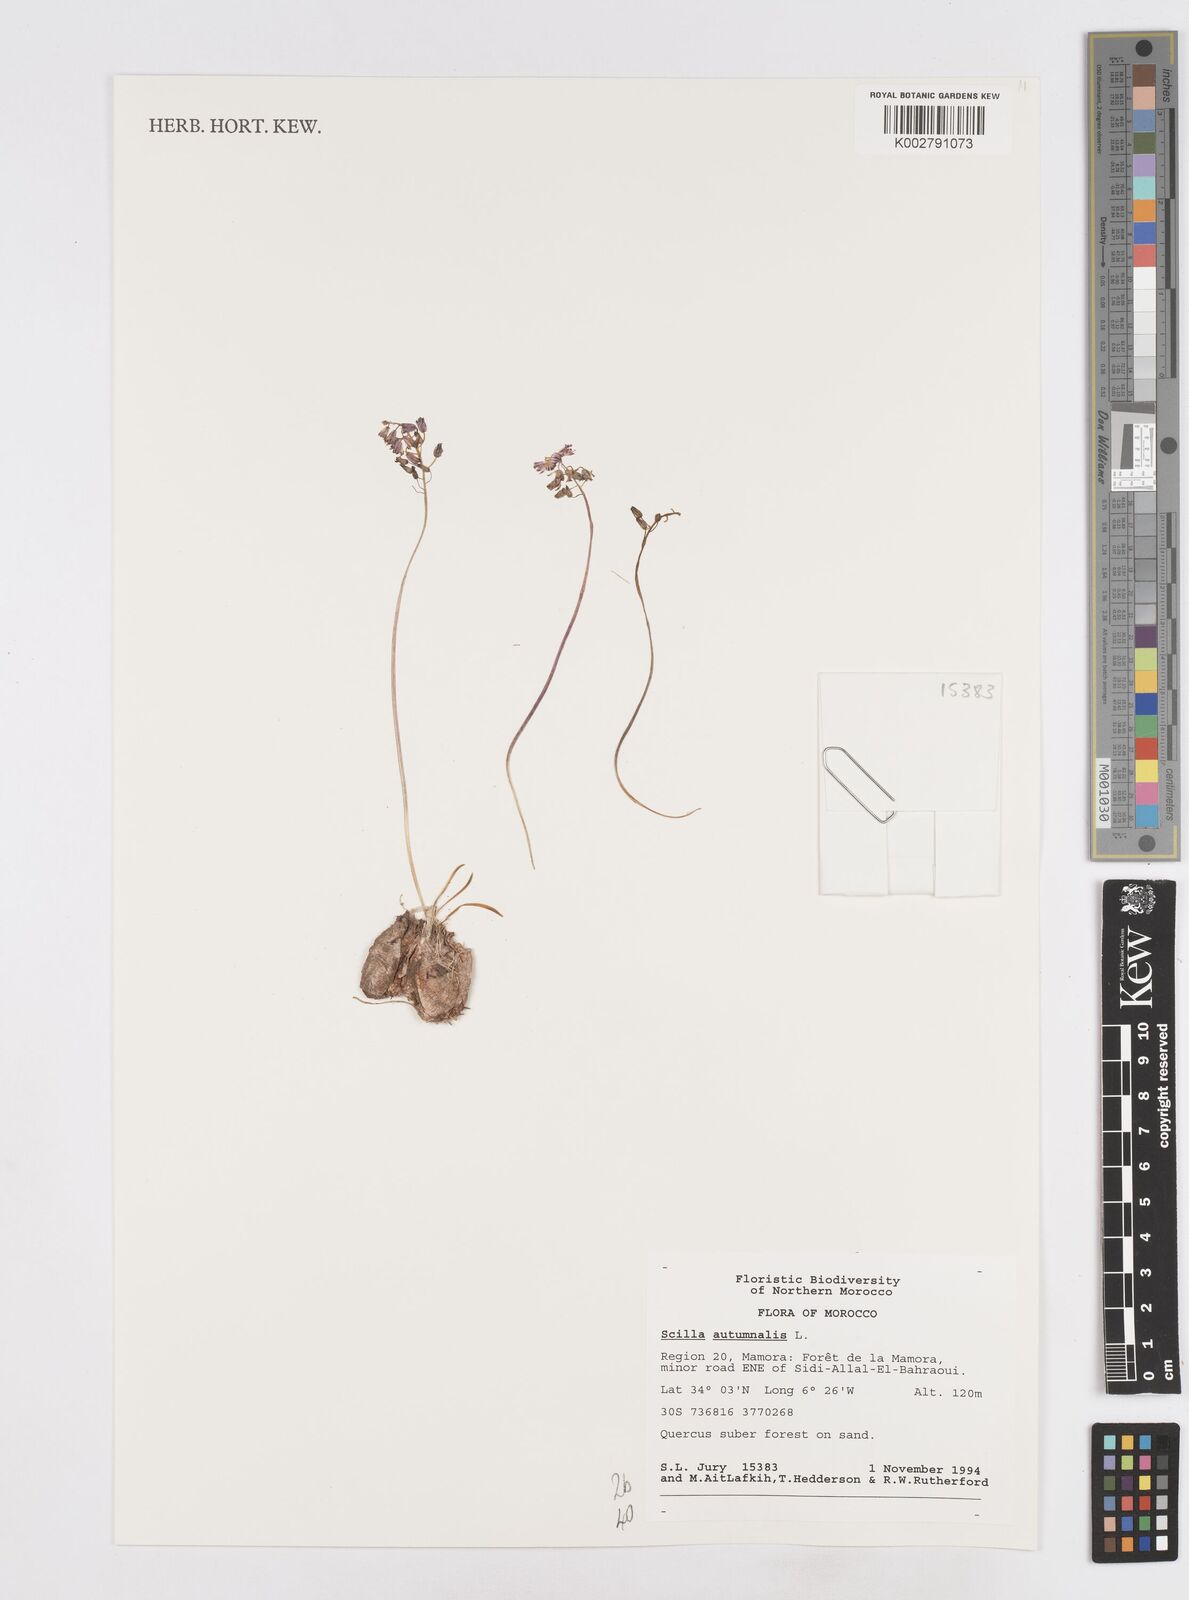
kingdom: Plantae
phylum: Tracheophyta
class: Liliopsida
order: Asparagales
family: Asparagaceae
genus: Prospero
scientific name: Prospero autumnale
